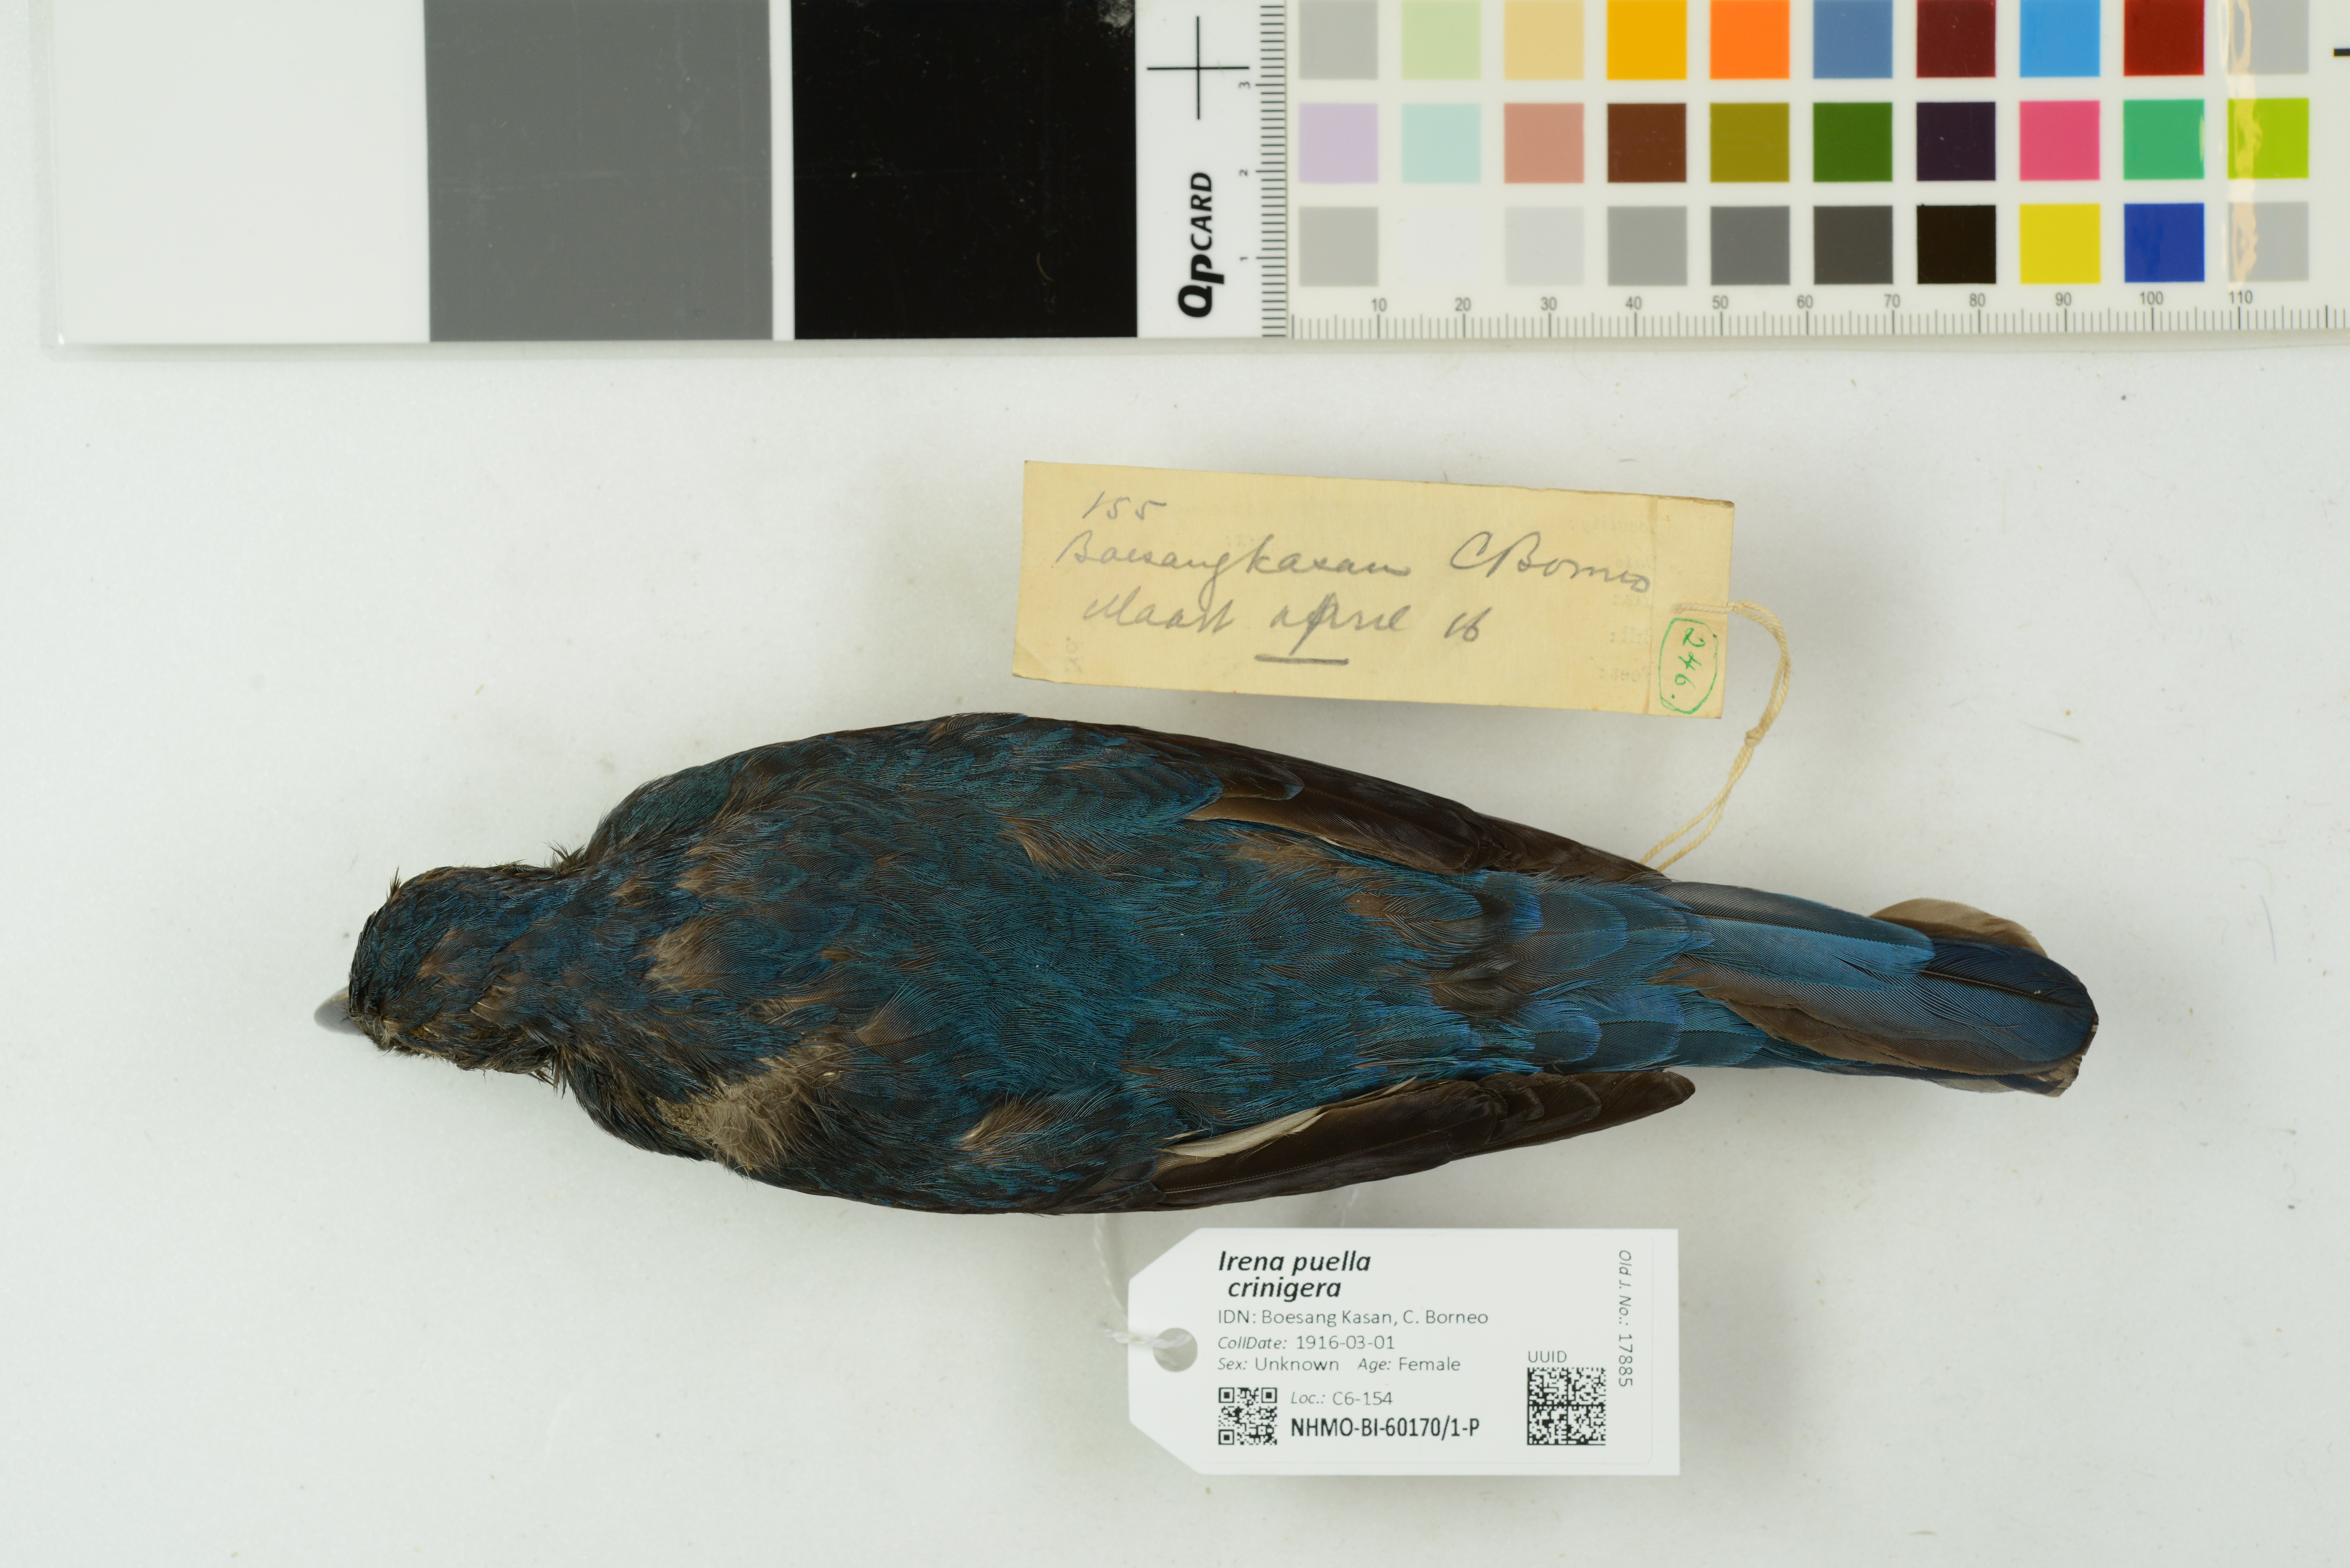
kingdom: Animalia
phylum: Chordata
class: Aves
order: Passeriformes
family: Irenidae
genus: Irena
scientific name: Irena puella
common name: Asian fairy-bluebird
